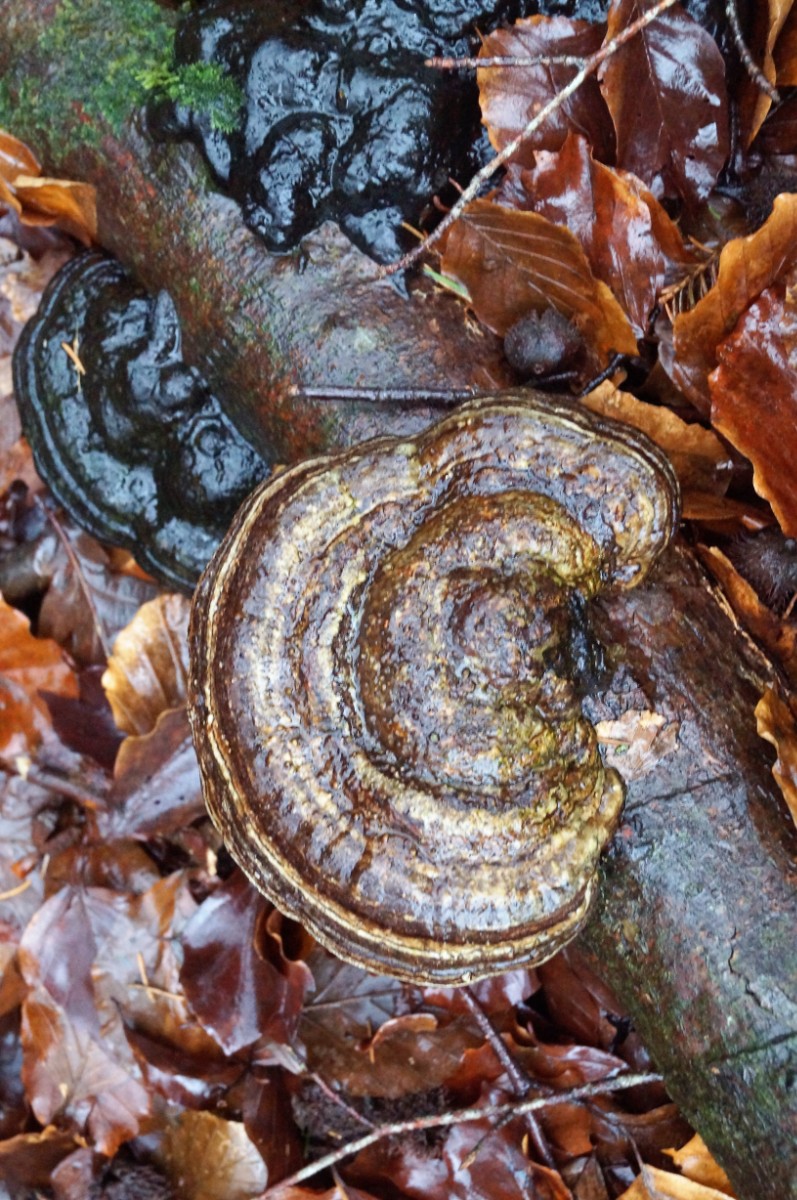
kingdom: Fungi
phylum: Basidiomycota
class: Agaricomycetes
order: Polyporales
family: Polyporaceae
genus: Ganoderma
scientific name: Ganoderma applanatum
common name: flad lakporesvamp
